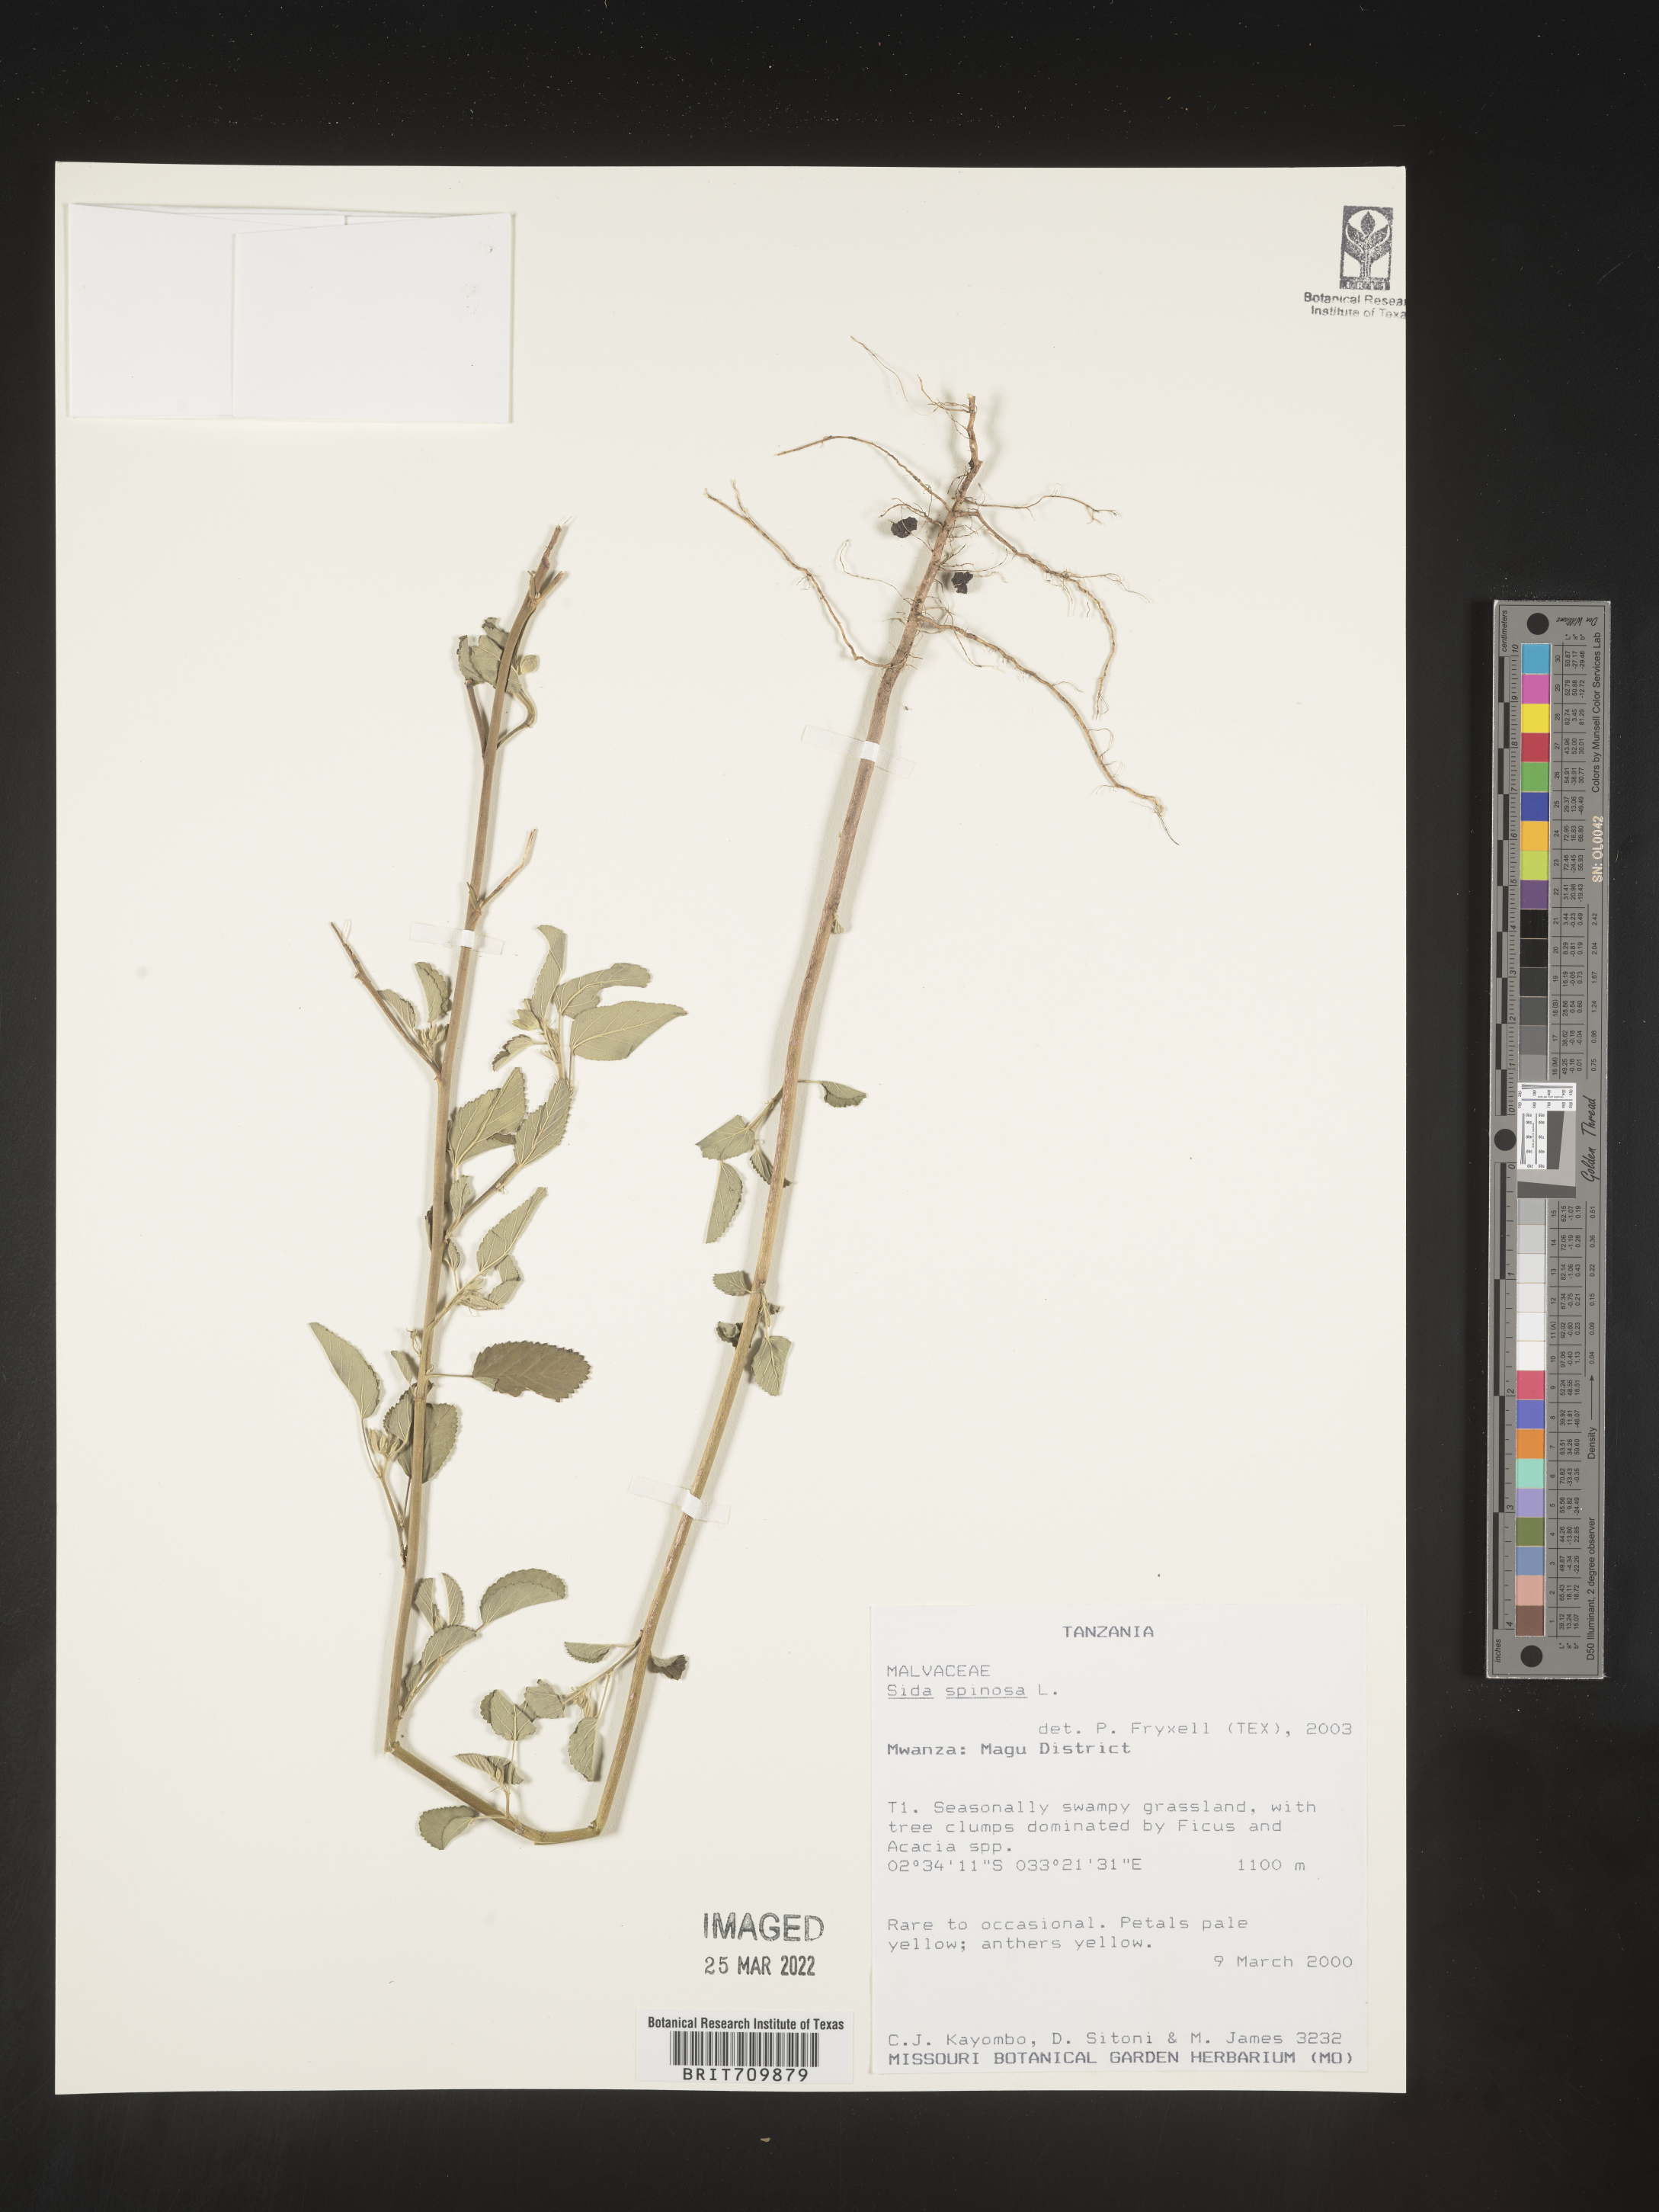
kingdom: Plantae
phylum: Tracheophyta
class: Magnoliopsida
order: Malvales
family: Malvaceae
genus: Sida
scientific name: Sida
